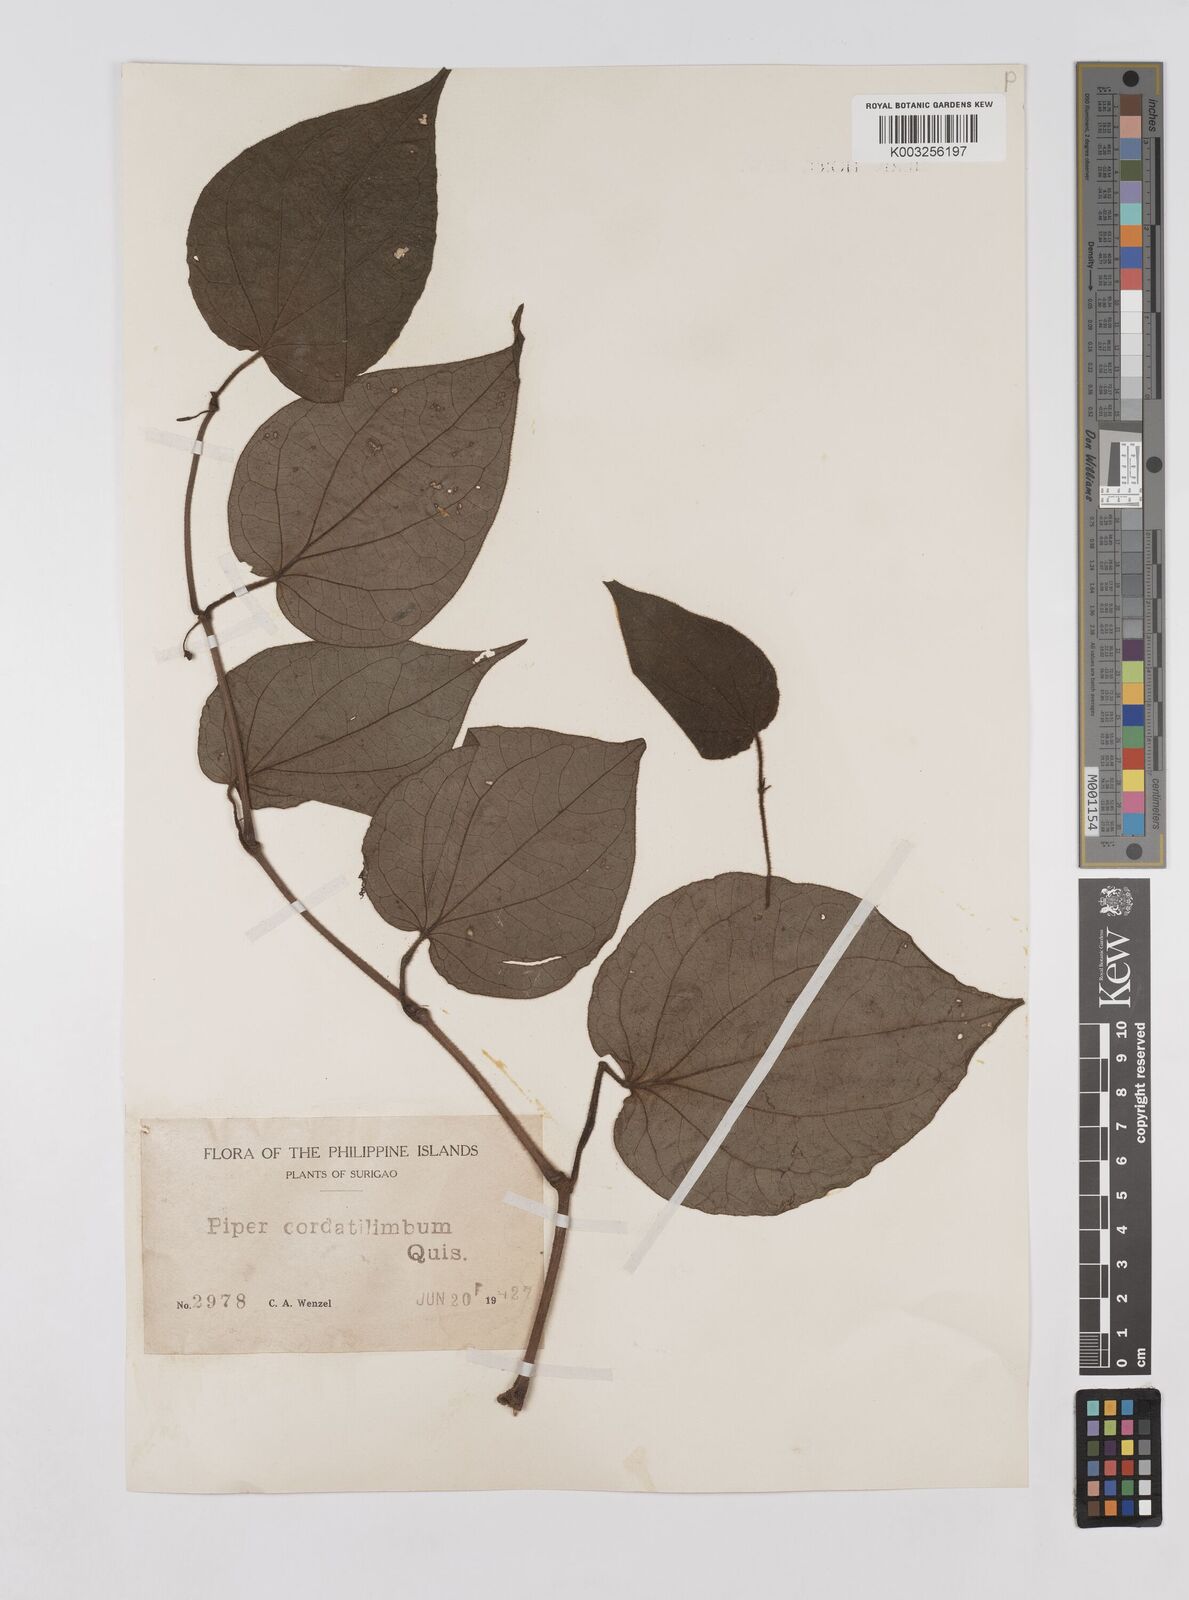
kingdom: Plantae
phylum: Tracheophyta
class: Magnoliopsida
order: Piperales
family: Piperaceae
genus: Piper
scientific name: Piper cordatilimbum
